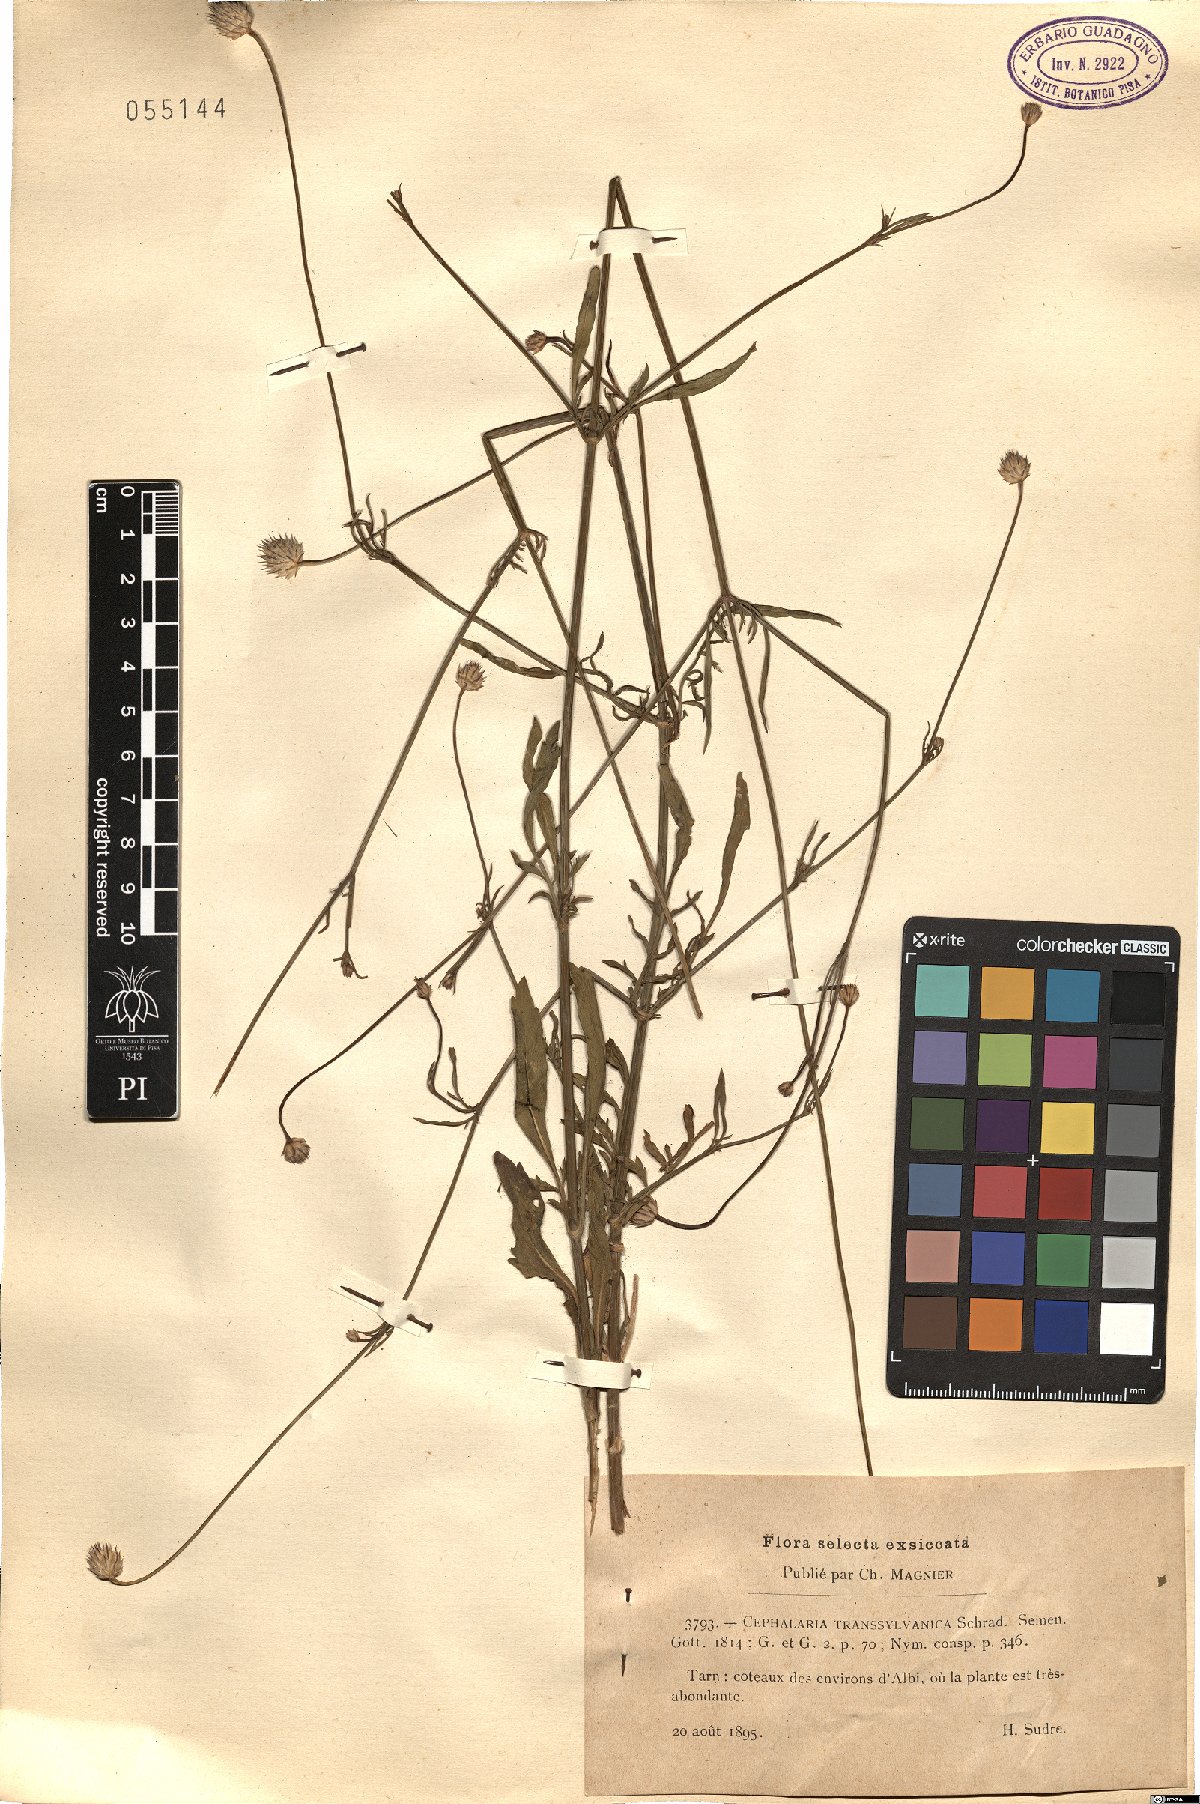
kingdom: Plantae
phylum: Tracheophyta
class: Magnoliopsida
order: Dipsacales
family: Caprifoliaceae
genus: Cephalaria
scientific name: Cephalaria transsylvanica
